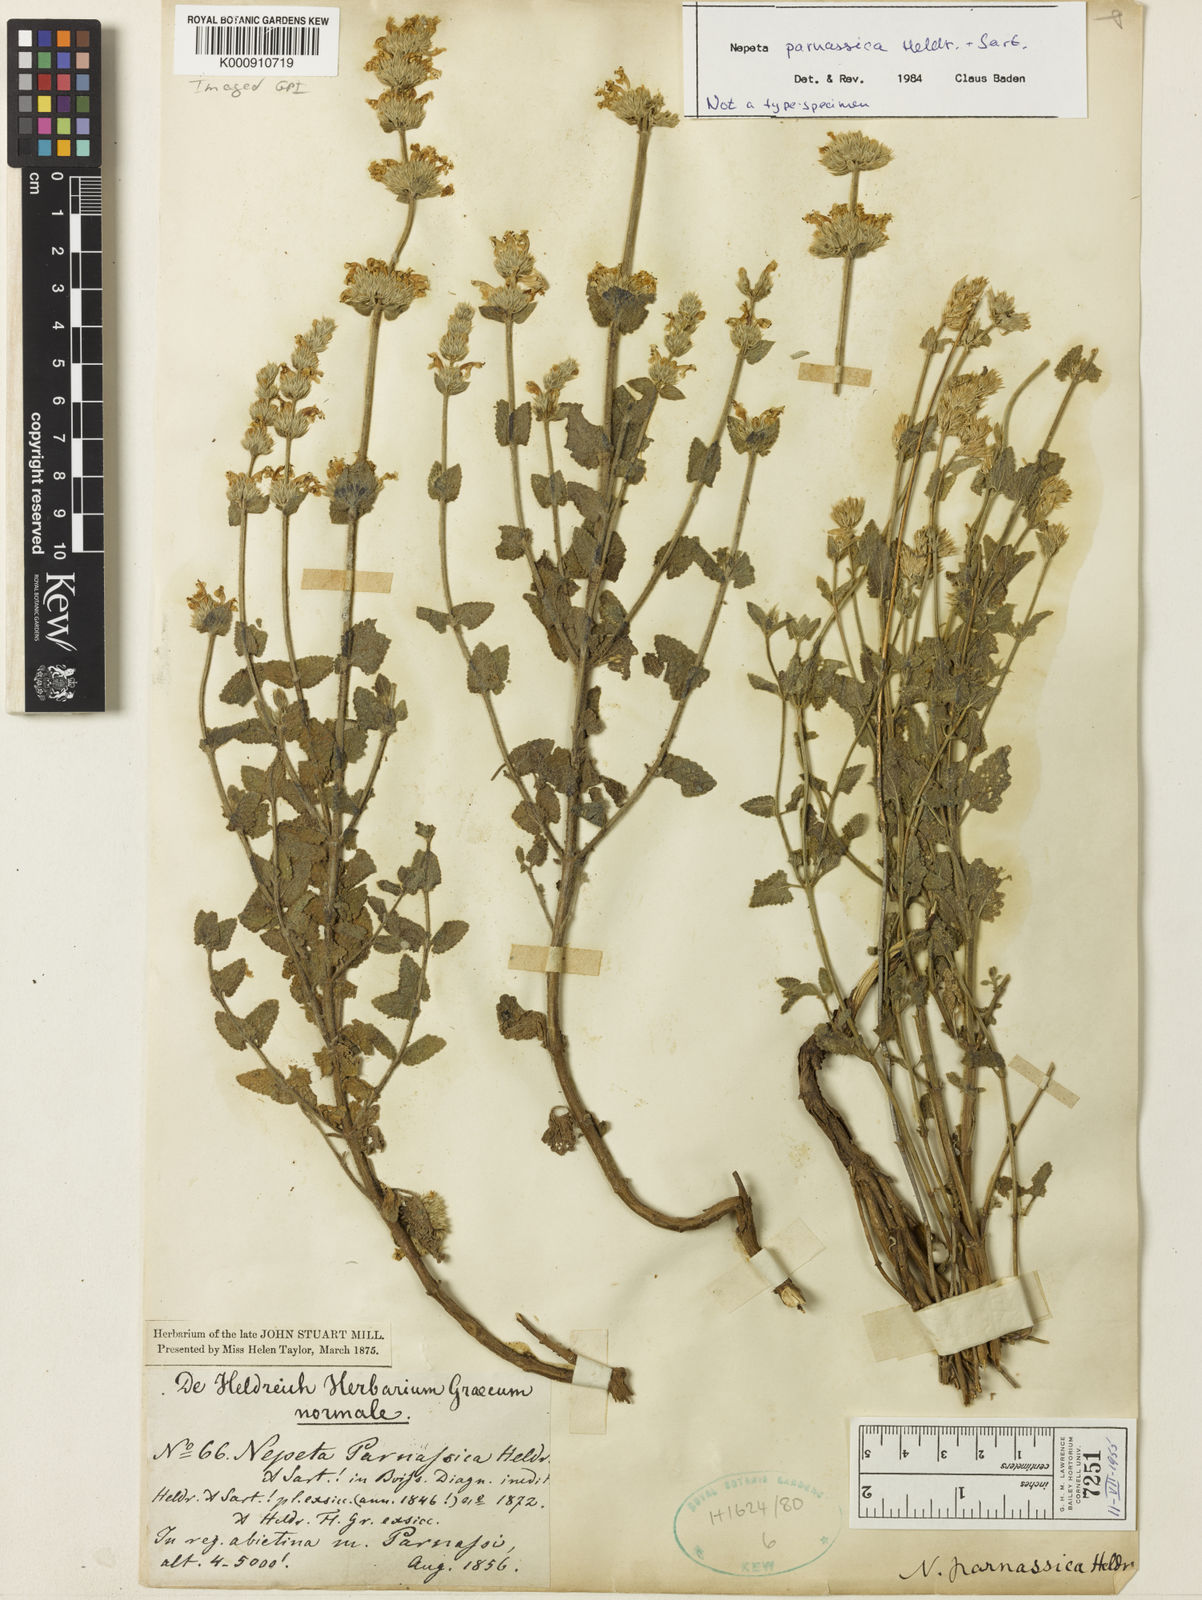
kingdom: Plantae
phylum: Tracheophyta
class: Magnoliopsida
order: Lamiales
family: Lamiaceae
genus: Nepeta
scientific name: Nepeta parnassica
